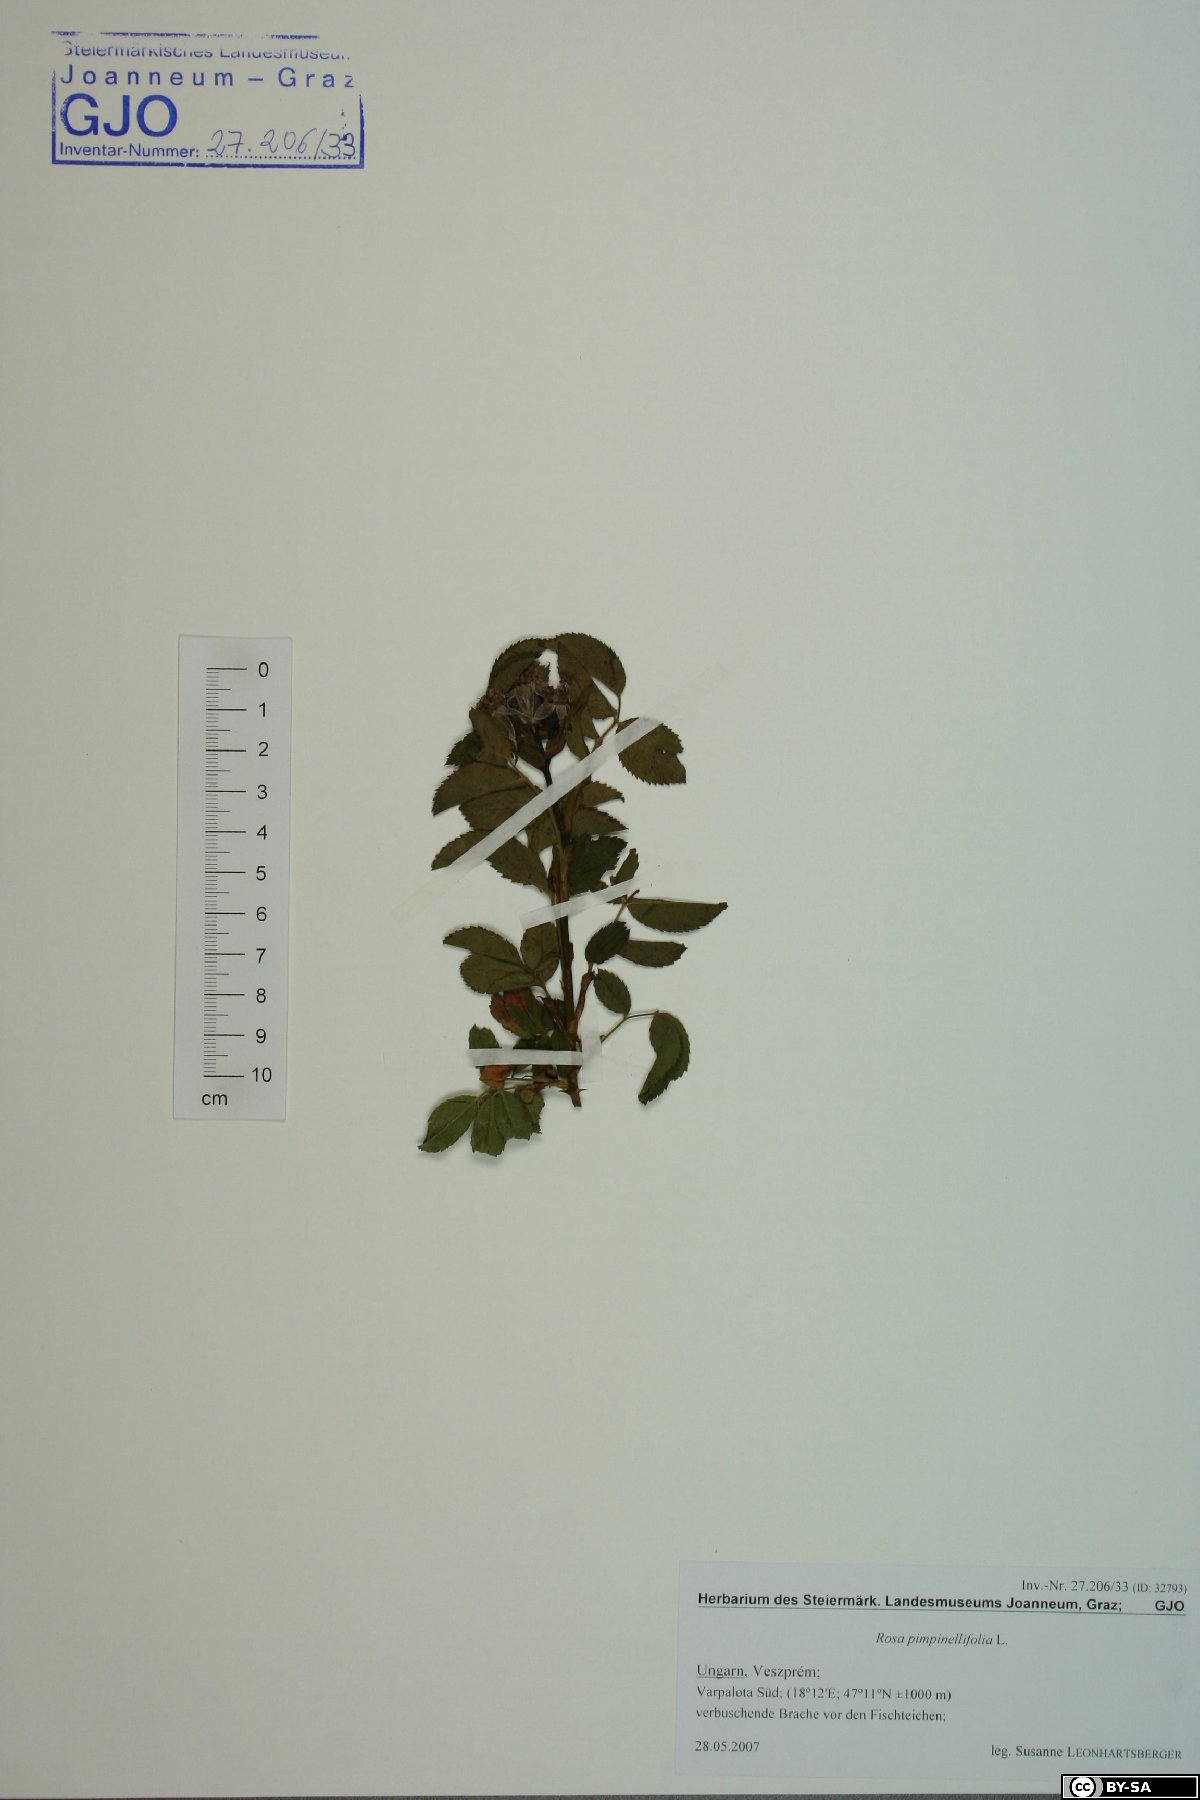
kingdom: Plantae
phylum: Tracheophyta
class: Magnoliopsida
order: Rosales
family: Rosaceae
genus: Rosa
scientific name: Rosa spinosissima
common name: Burnet rose
